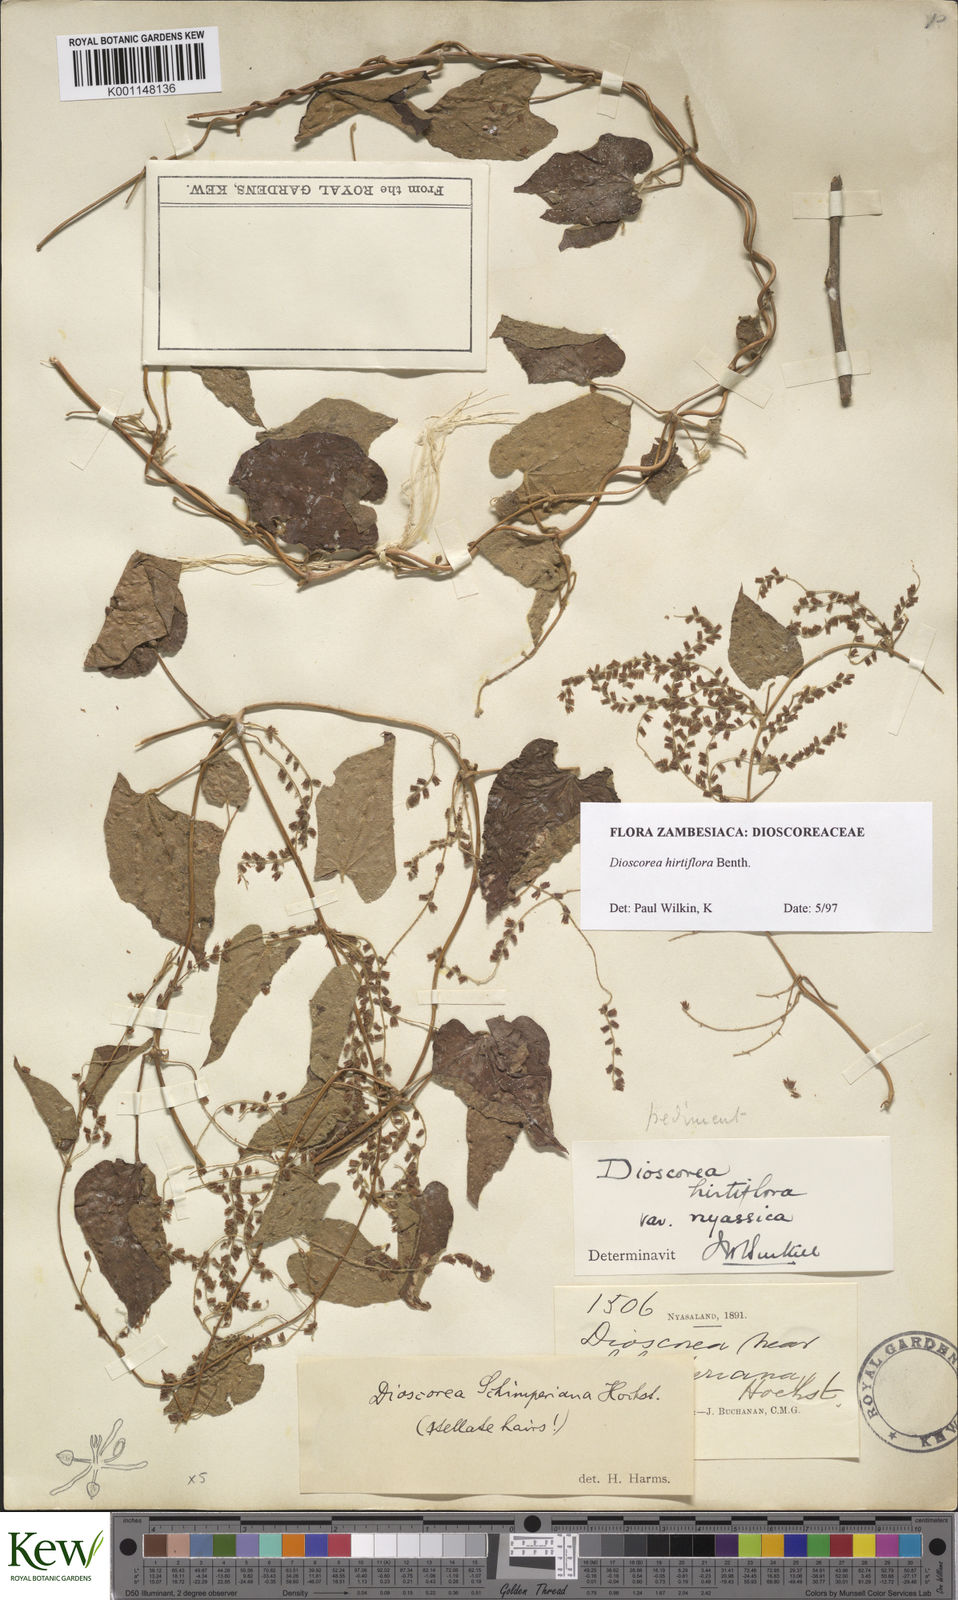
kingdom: Plantae
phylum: Tracheophyta
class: Liliopsida
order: Dioscoreales
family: Dioscoreaceae
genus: Dioscorea
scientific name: Dioscorea hirtiflora
